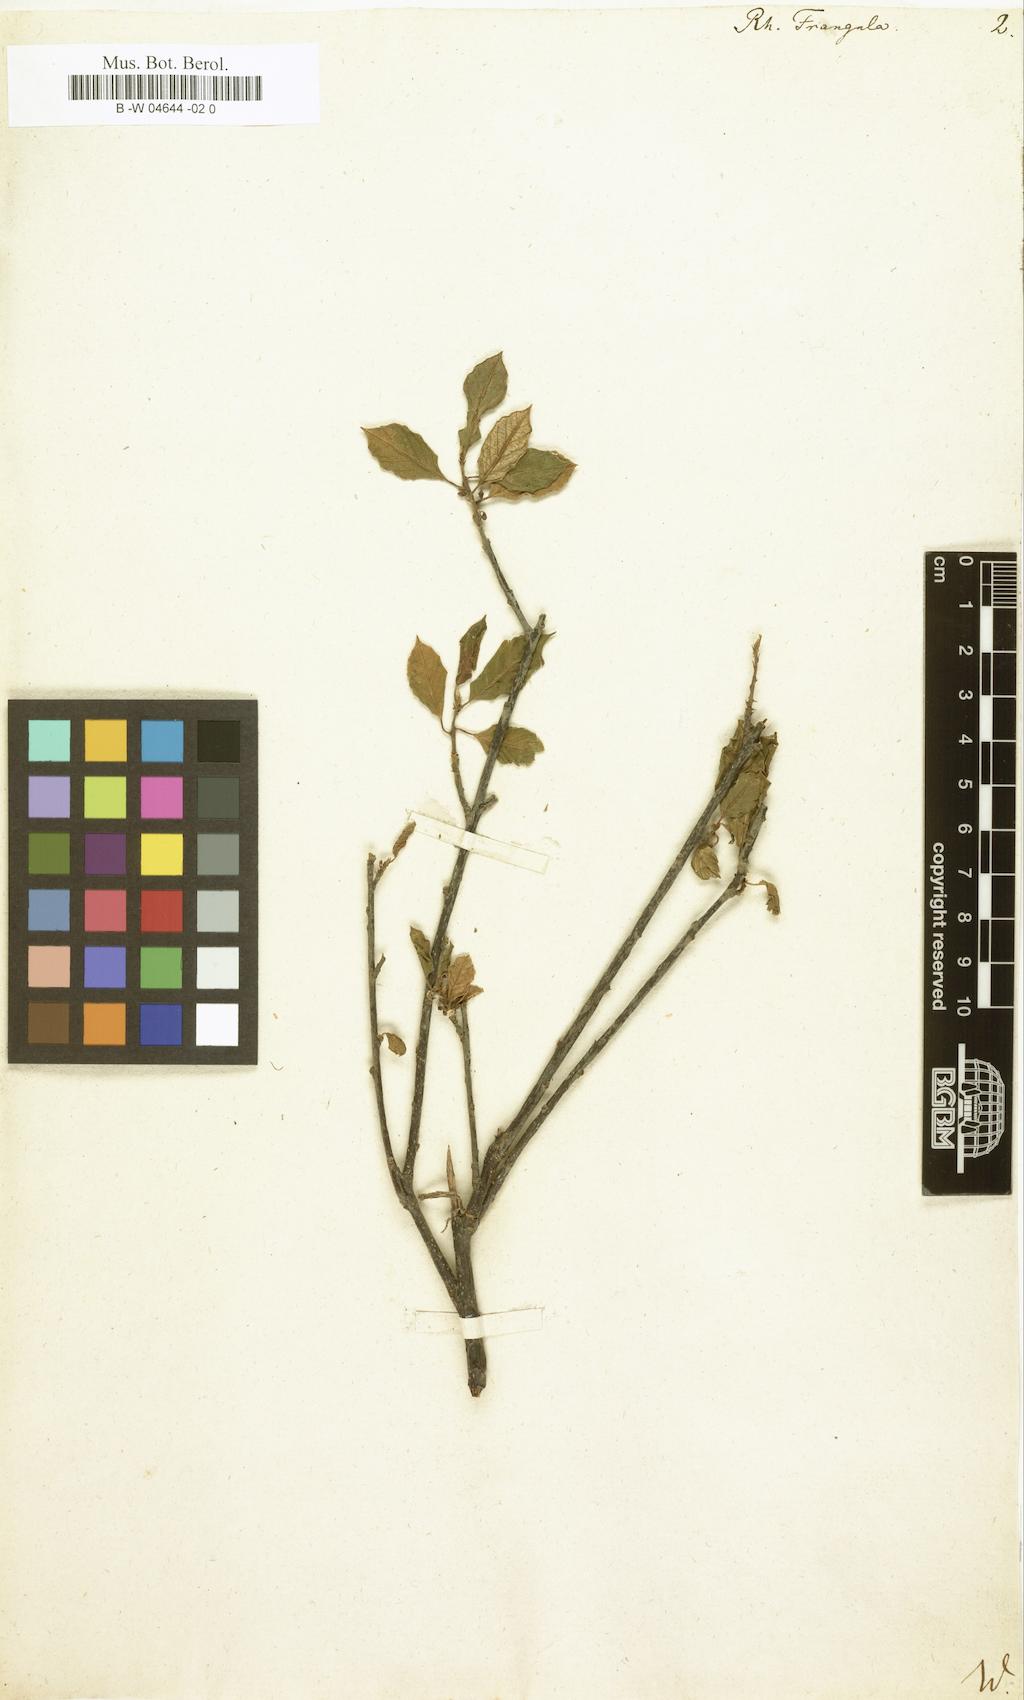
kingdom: Plantae
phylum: Tracheophyta
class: Magnoliopsida
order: Rosales
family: Rhamnaceae
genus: Frangula
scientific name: Frangula alnus
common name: Alder buckthorn
